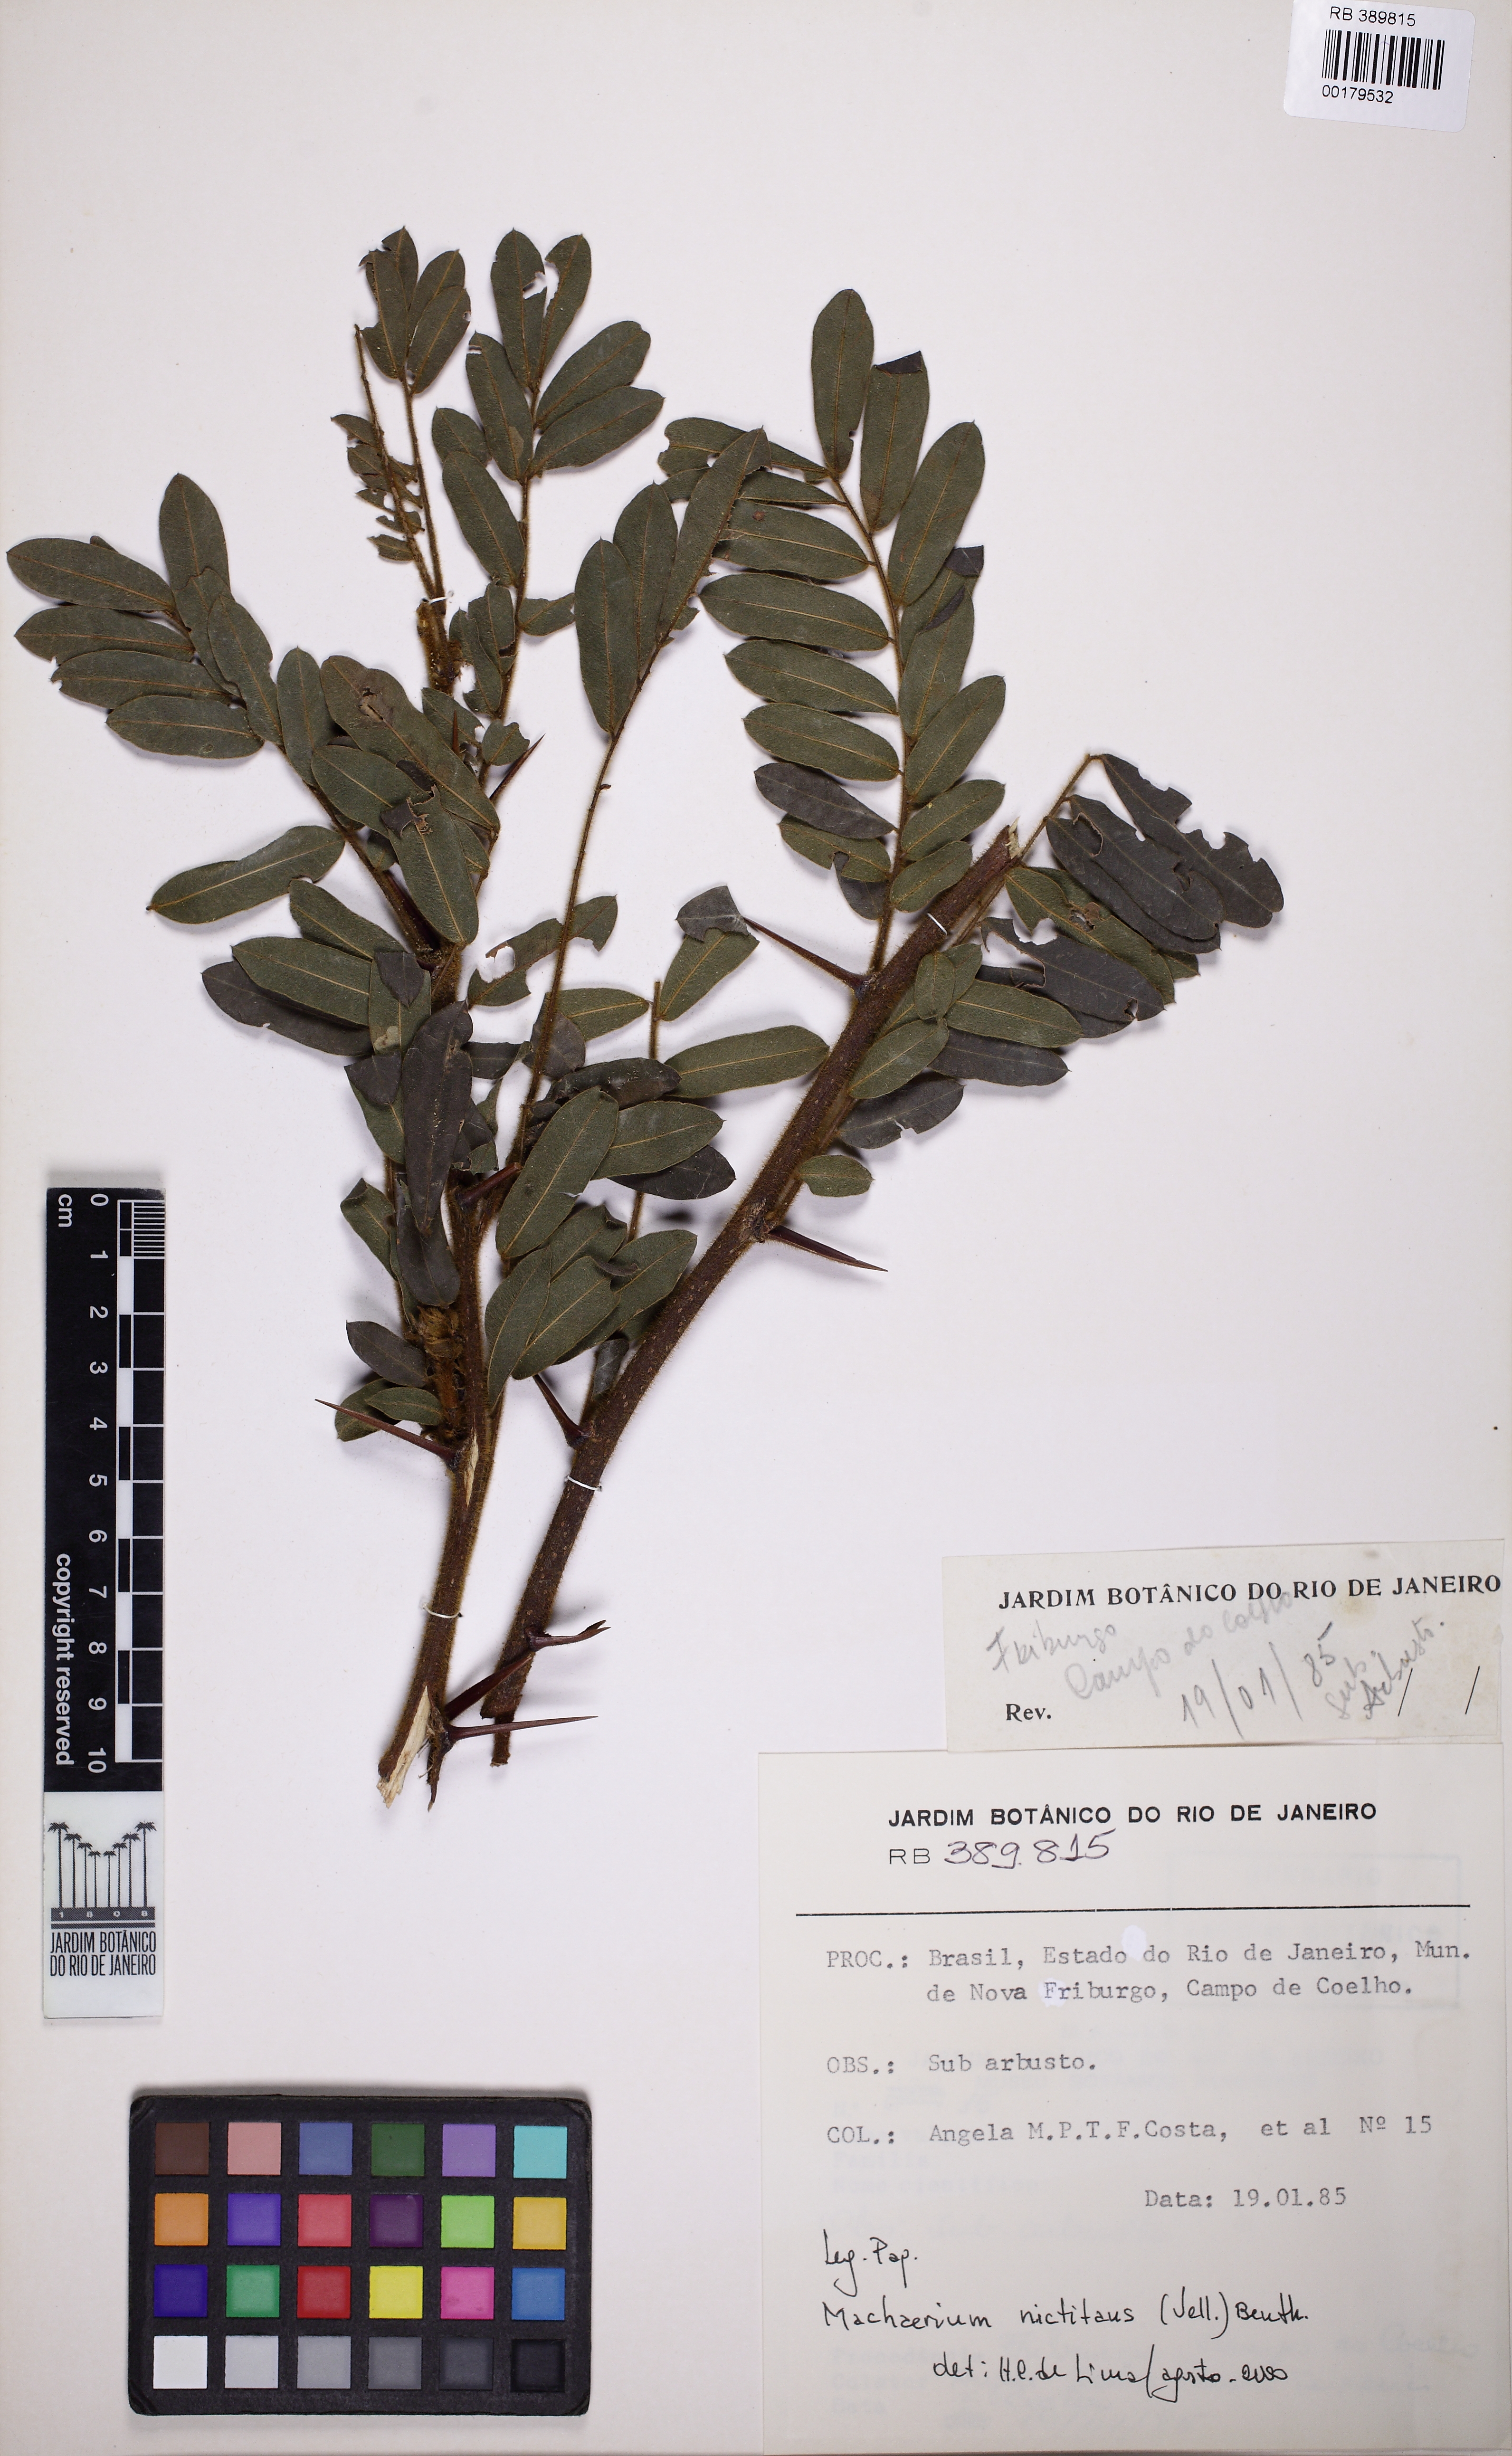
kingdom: Plantae
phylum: Tracheophyta
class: Magnoliopsida
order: Fabales
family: Fabaceae
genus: Machaerium
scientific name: Machaerium nyctitans
